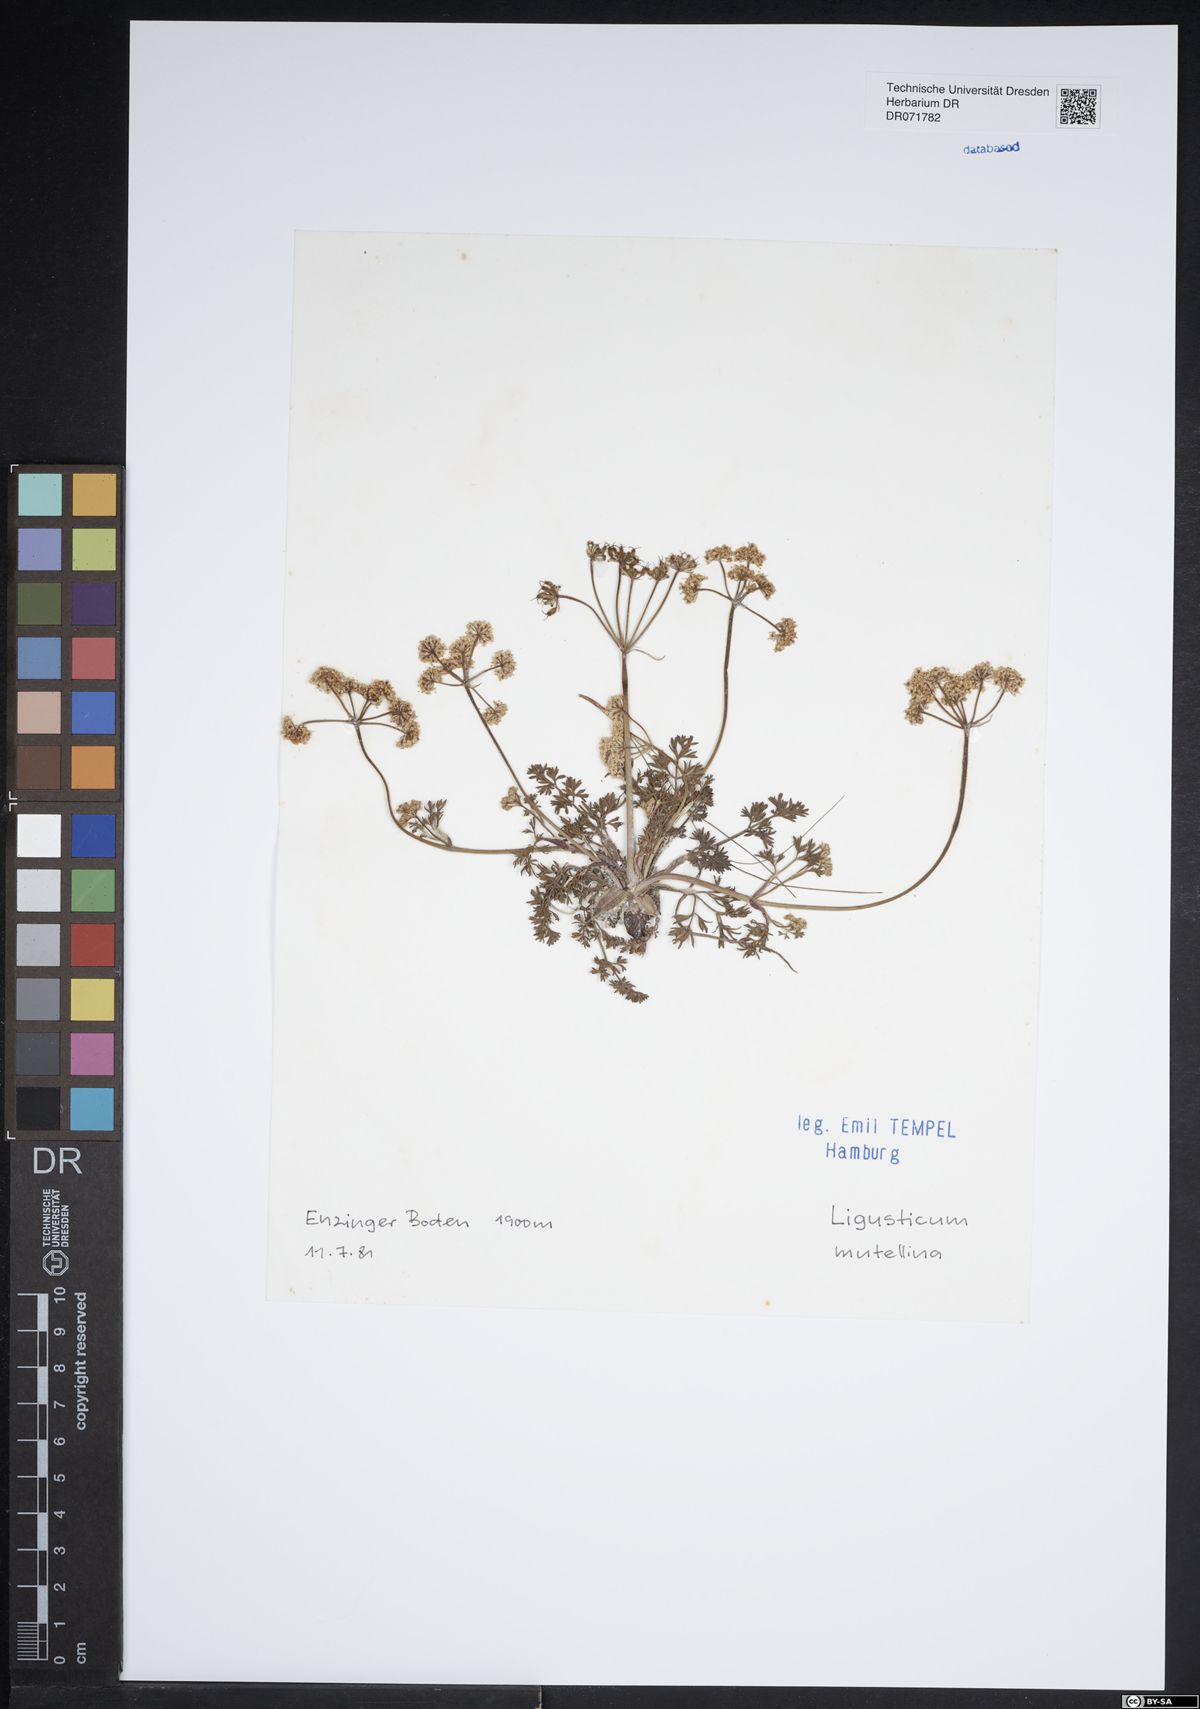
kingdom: Plantae
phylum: Tracheophyta
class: Magnoliopsida
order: Apiales
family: Apiaceae
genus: Mutellina
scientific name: Mutellina adonidifolia
